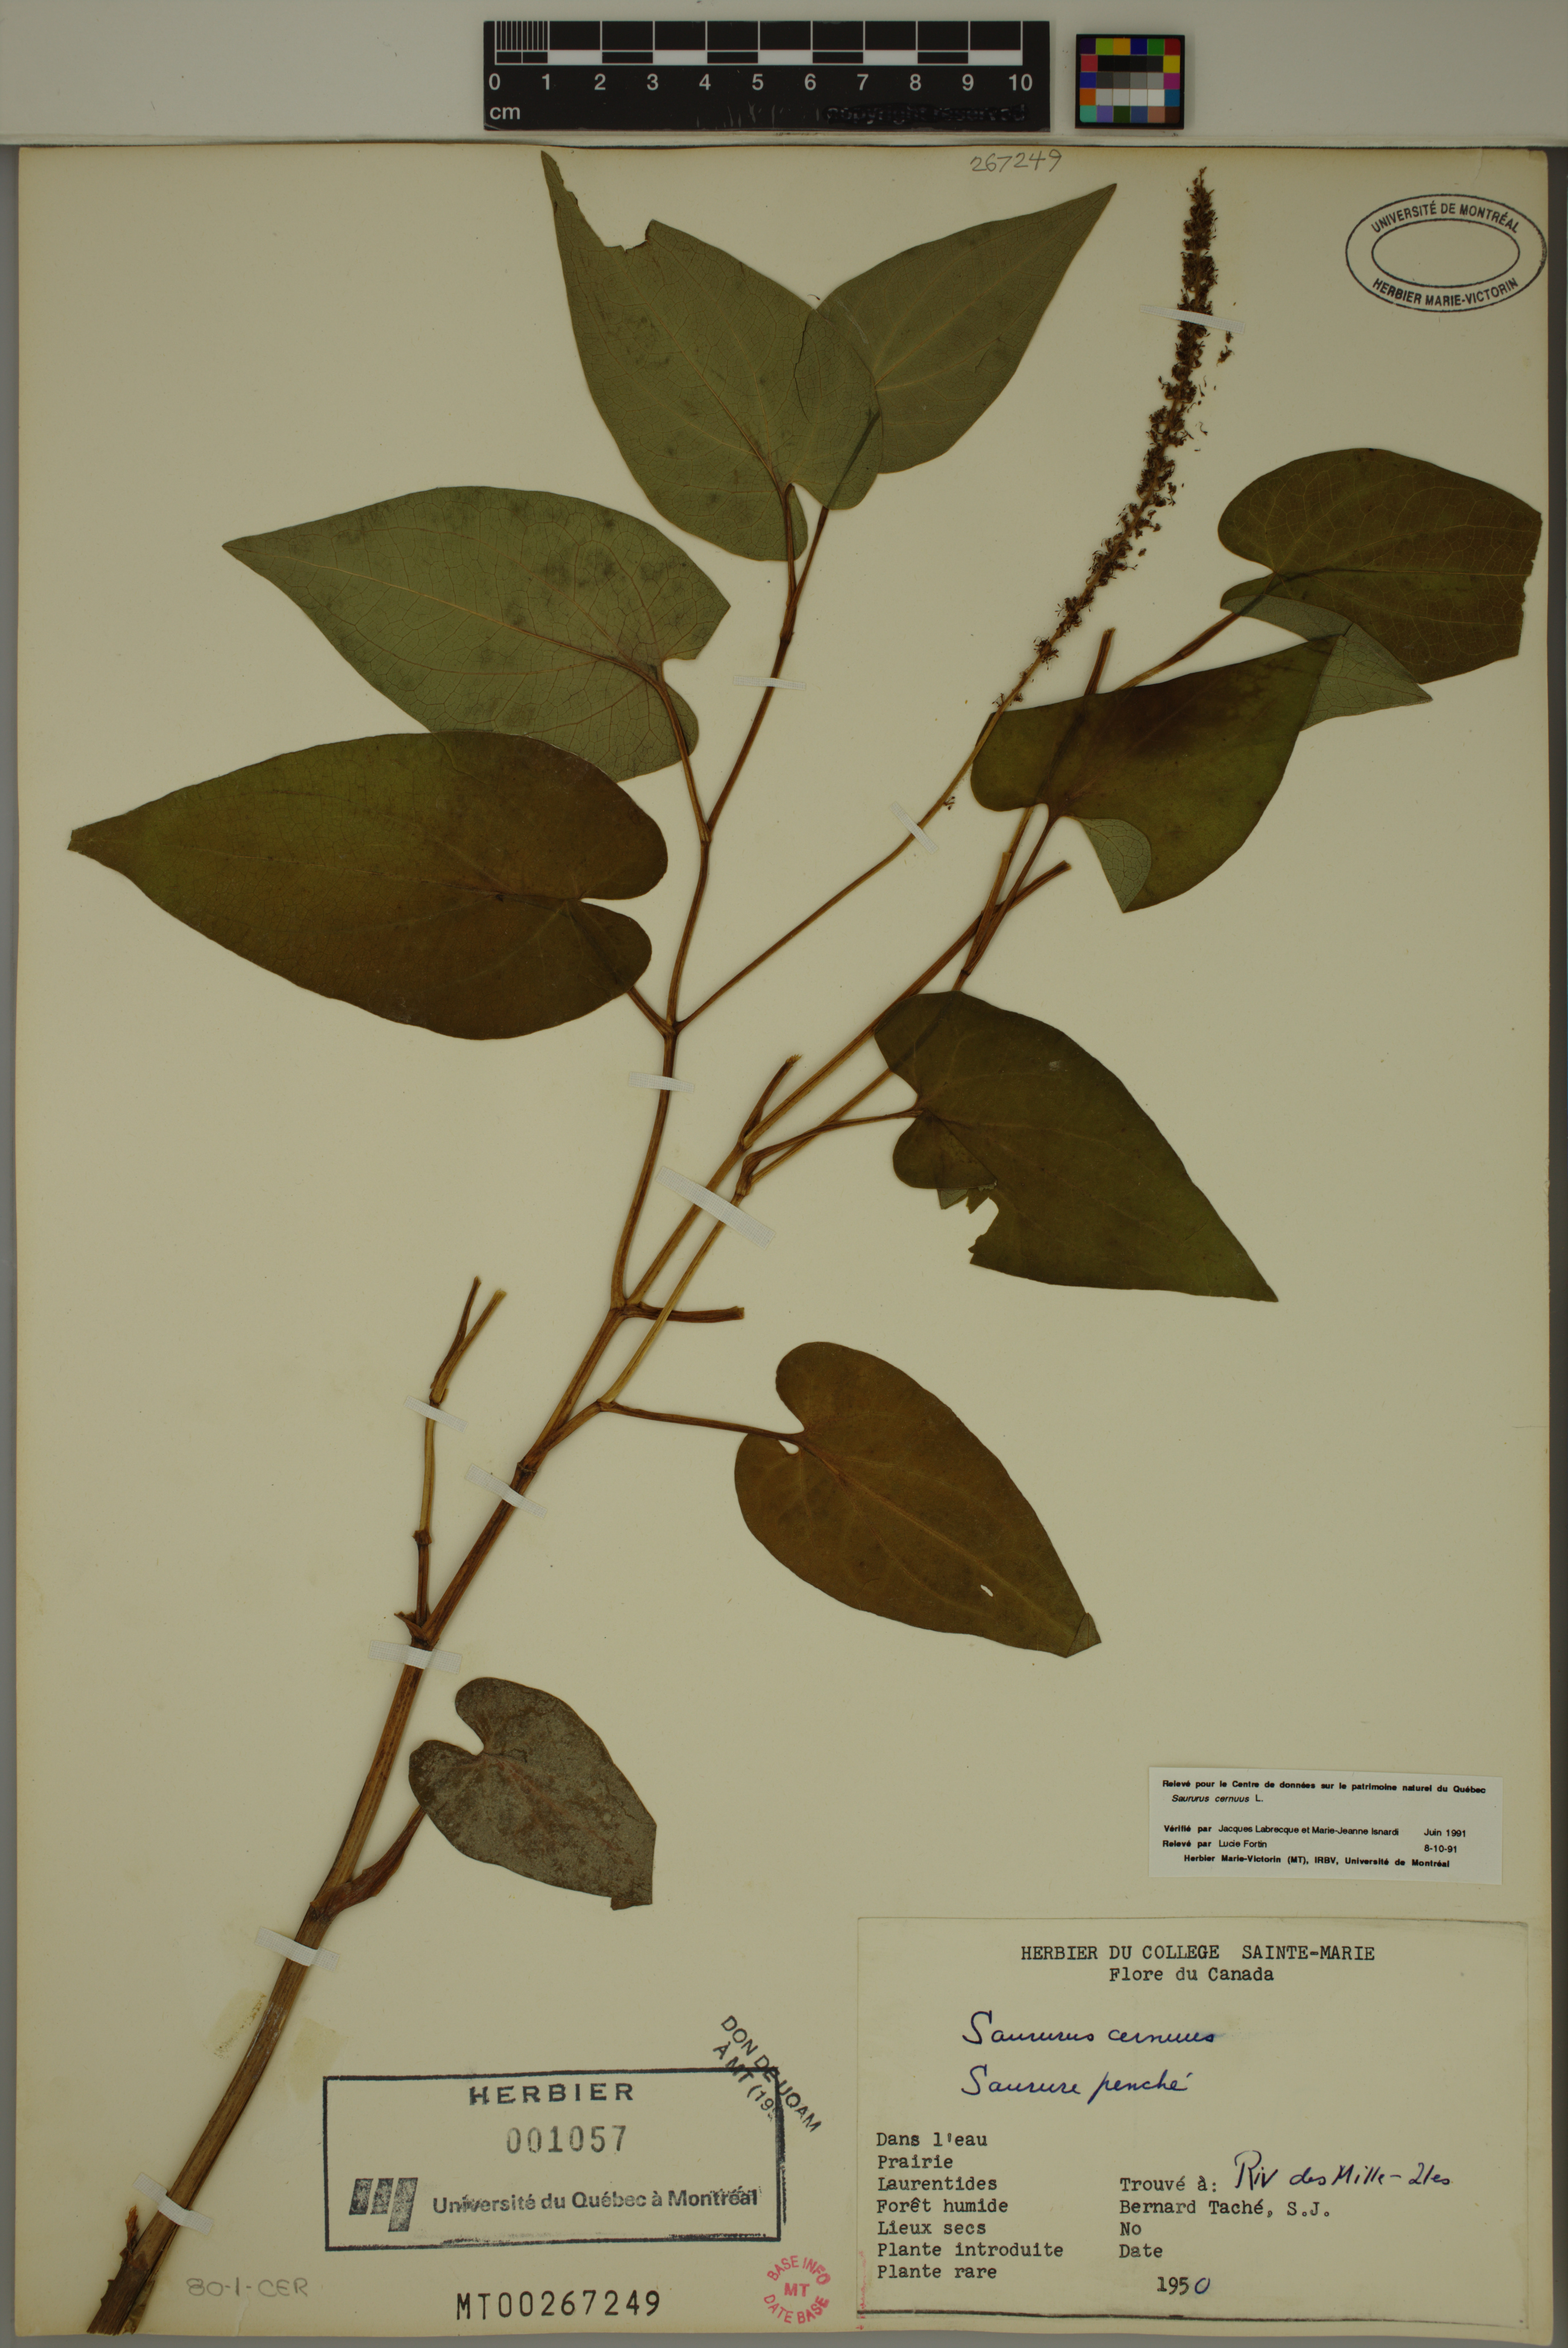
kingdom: Plantae
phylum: Tracheophyta
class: Magnoliopsida
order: Piperales
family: Saururaceae
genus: Saururus
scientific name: Saururus cernuus
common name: Lizard's-tail
